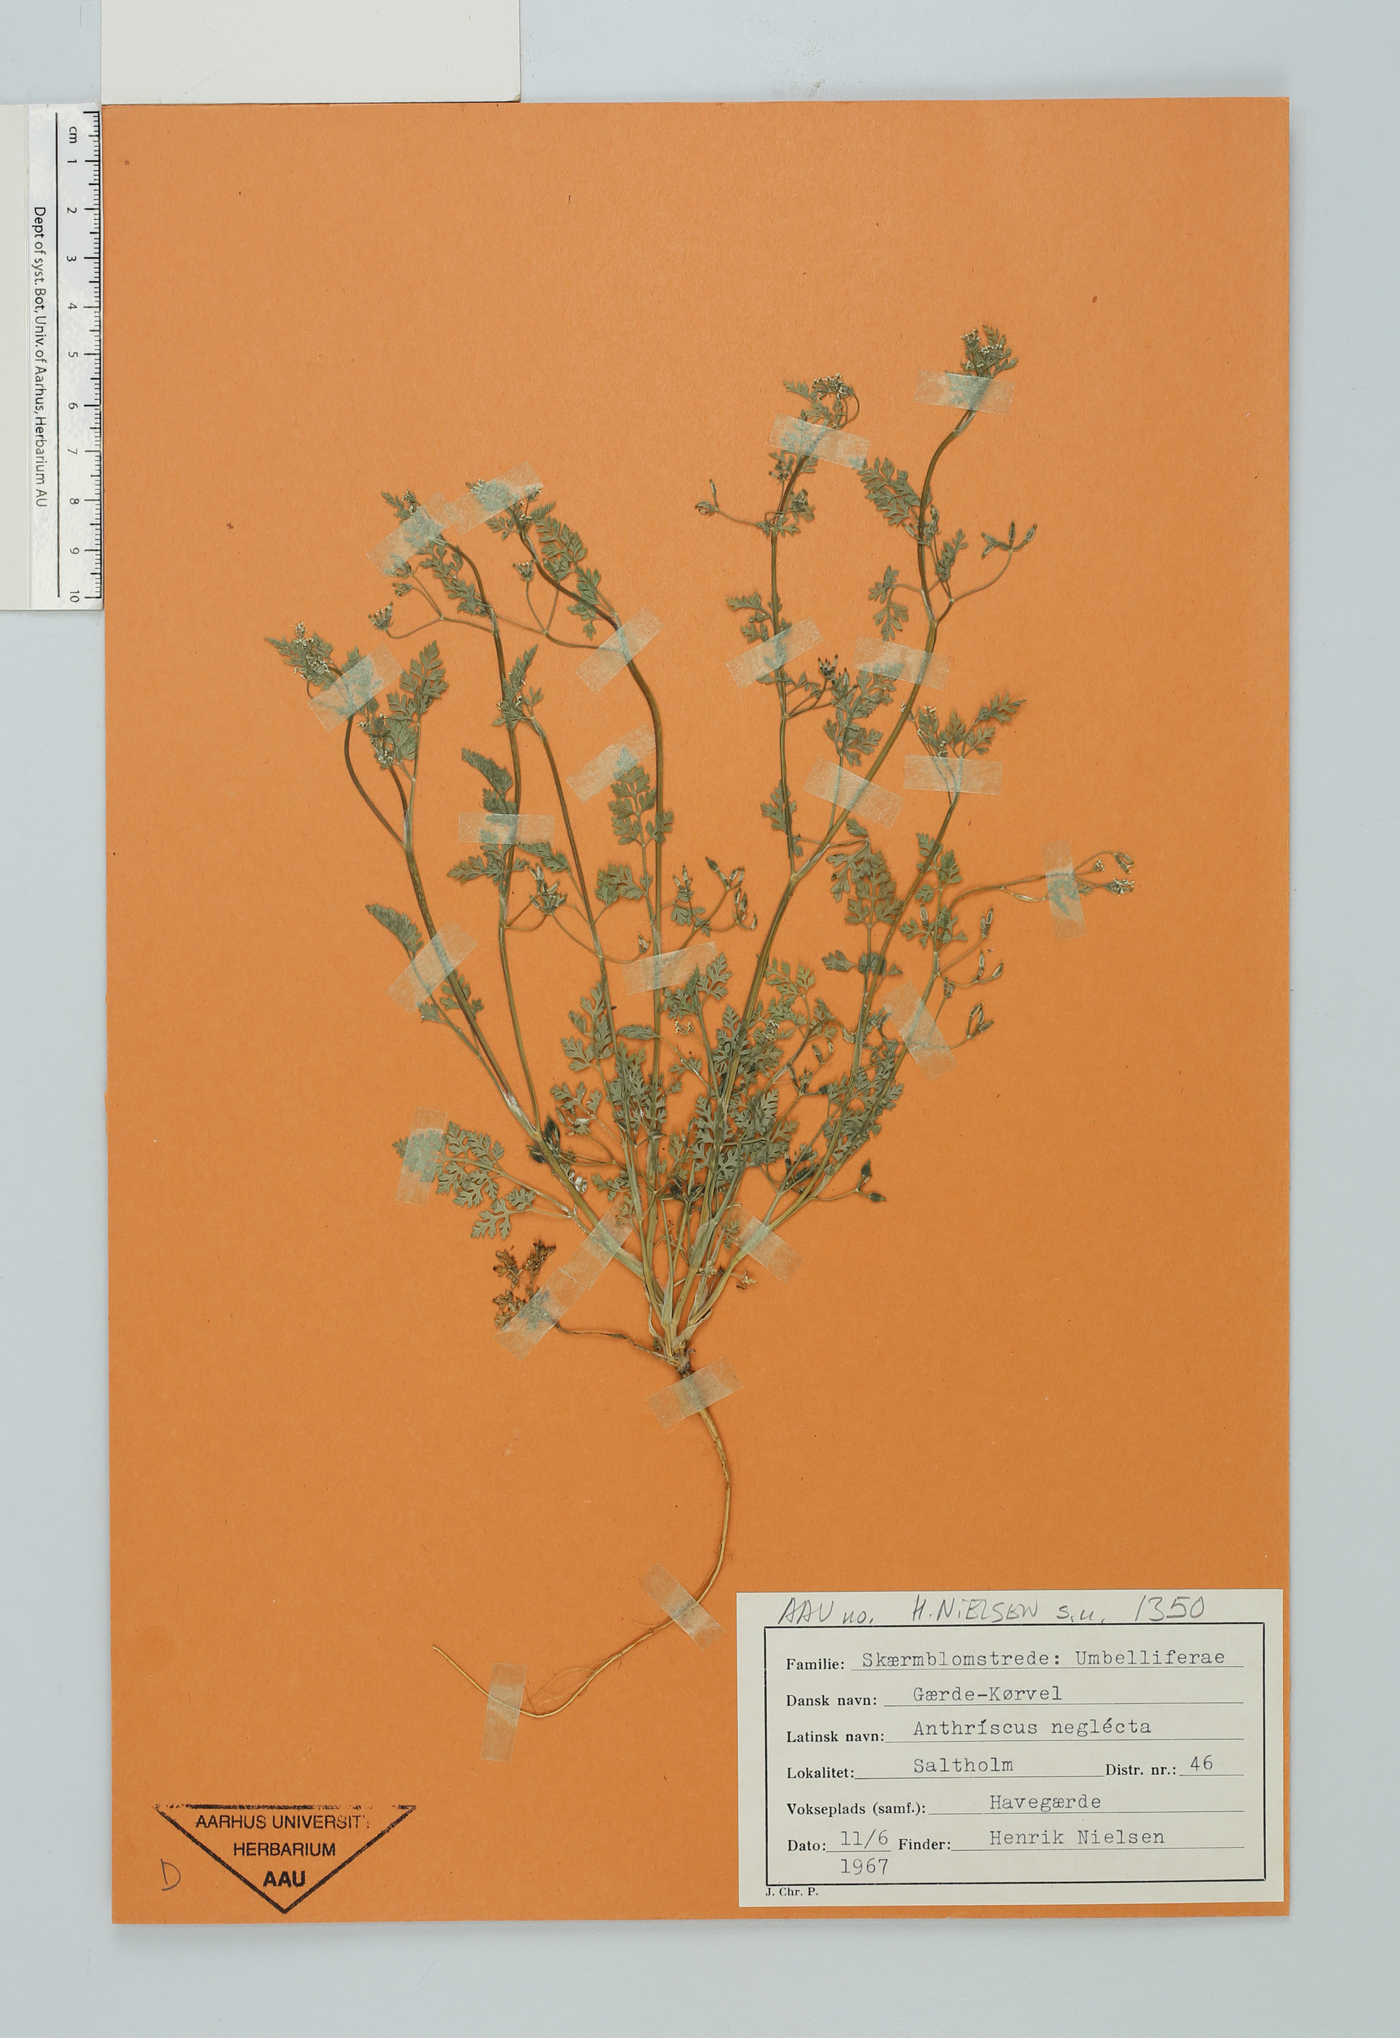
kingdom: Plantae
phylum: Tracheophyta
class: Magnoliopsida
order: Apiales
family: Apiaceae
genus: Anthriscus
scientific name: Anthriscus caucalis
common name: Bur chervil
